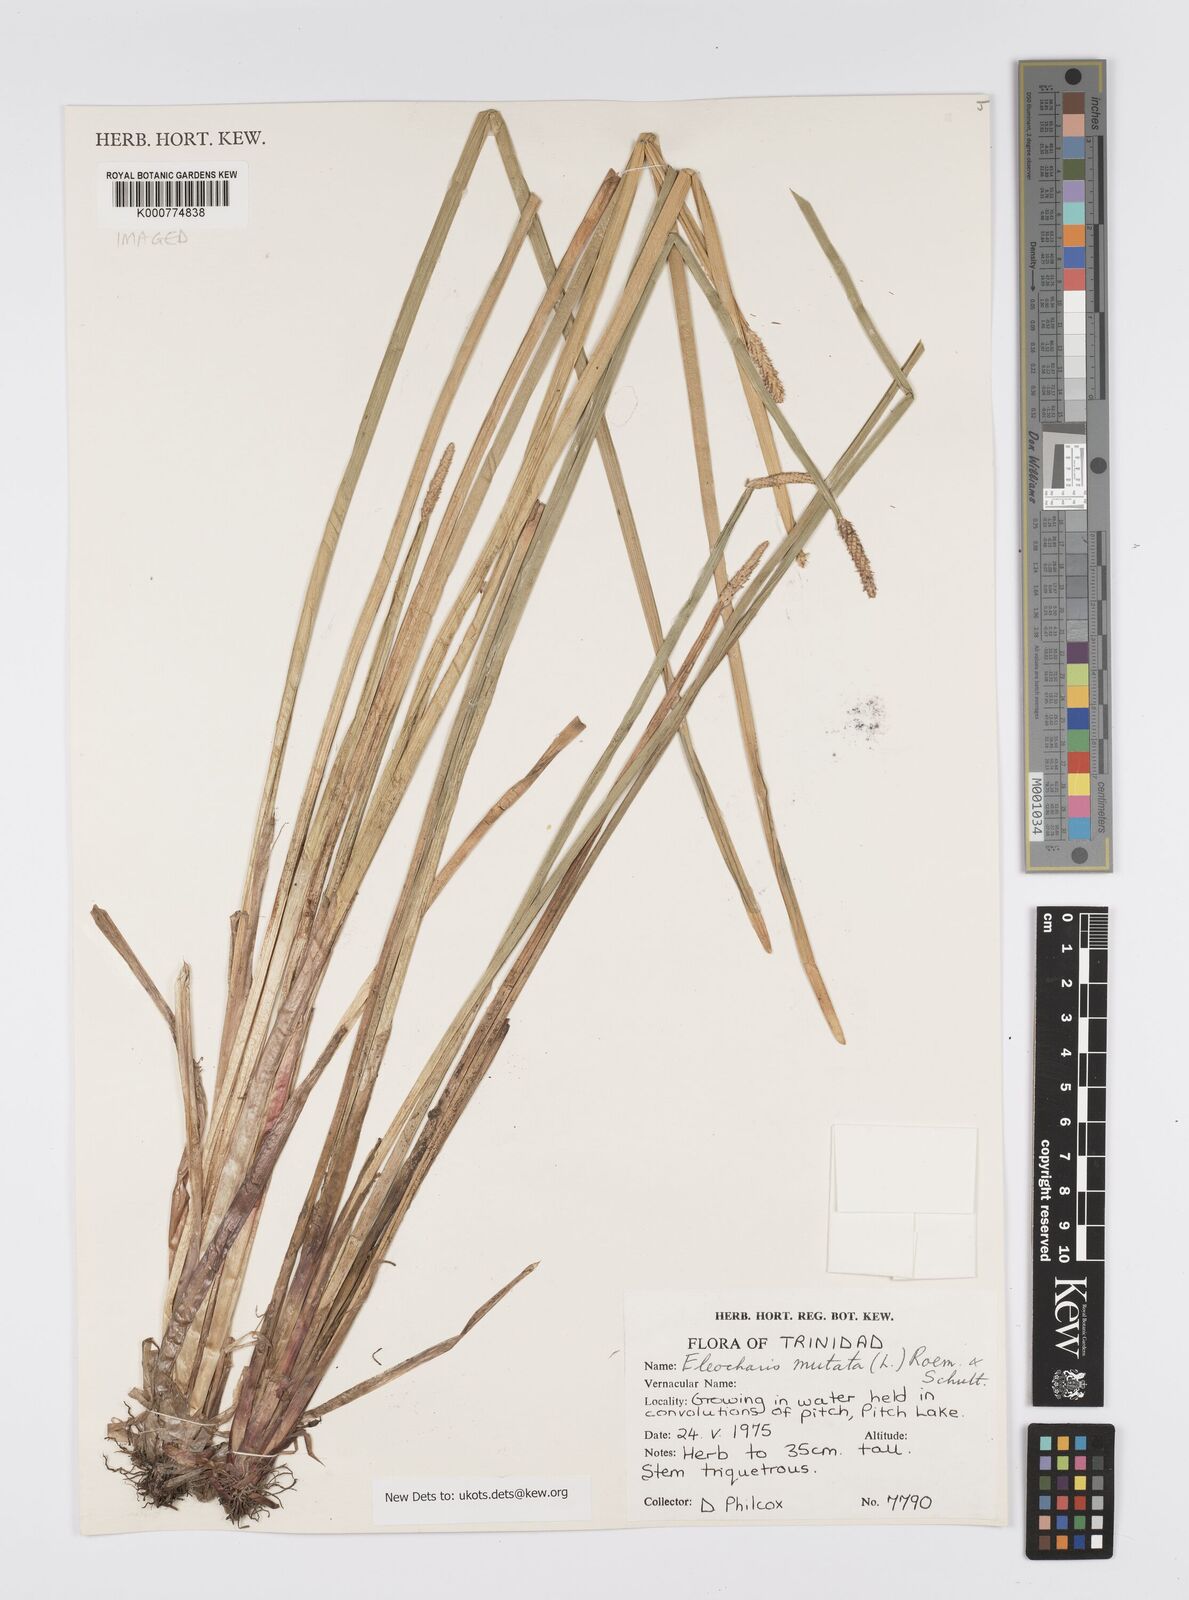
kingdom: Plantae
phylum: Tracheophyta
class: Liliopsida
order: Poales
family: Cyperaceae
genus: Eleocharis
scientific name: Eleocharis mutata
